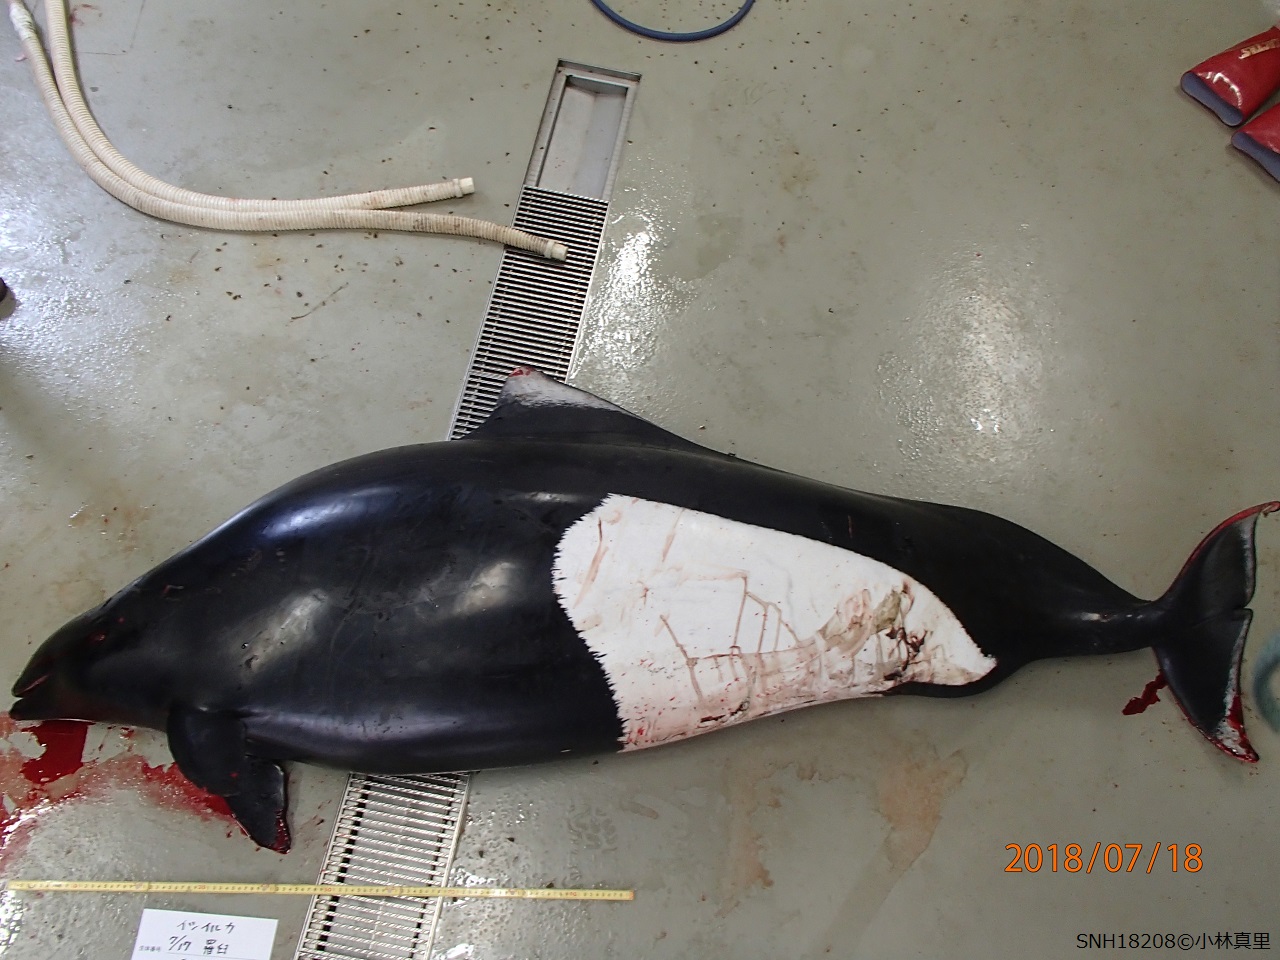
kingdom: Animalia
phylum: Chordata
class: Mammalia
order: Cetacea
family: Phocoenidae
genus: Phocoenoides
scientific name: Phocoenoides dalli
